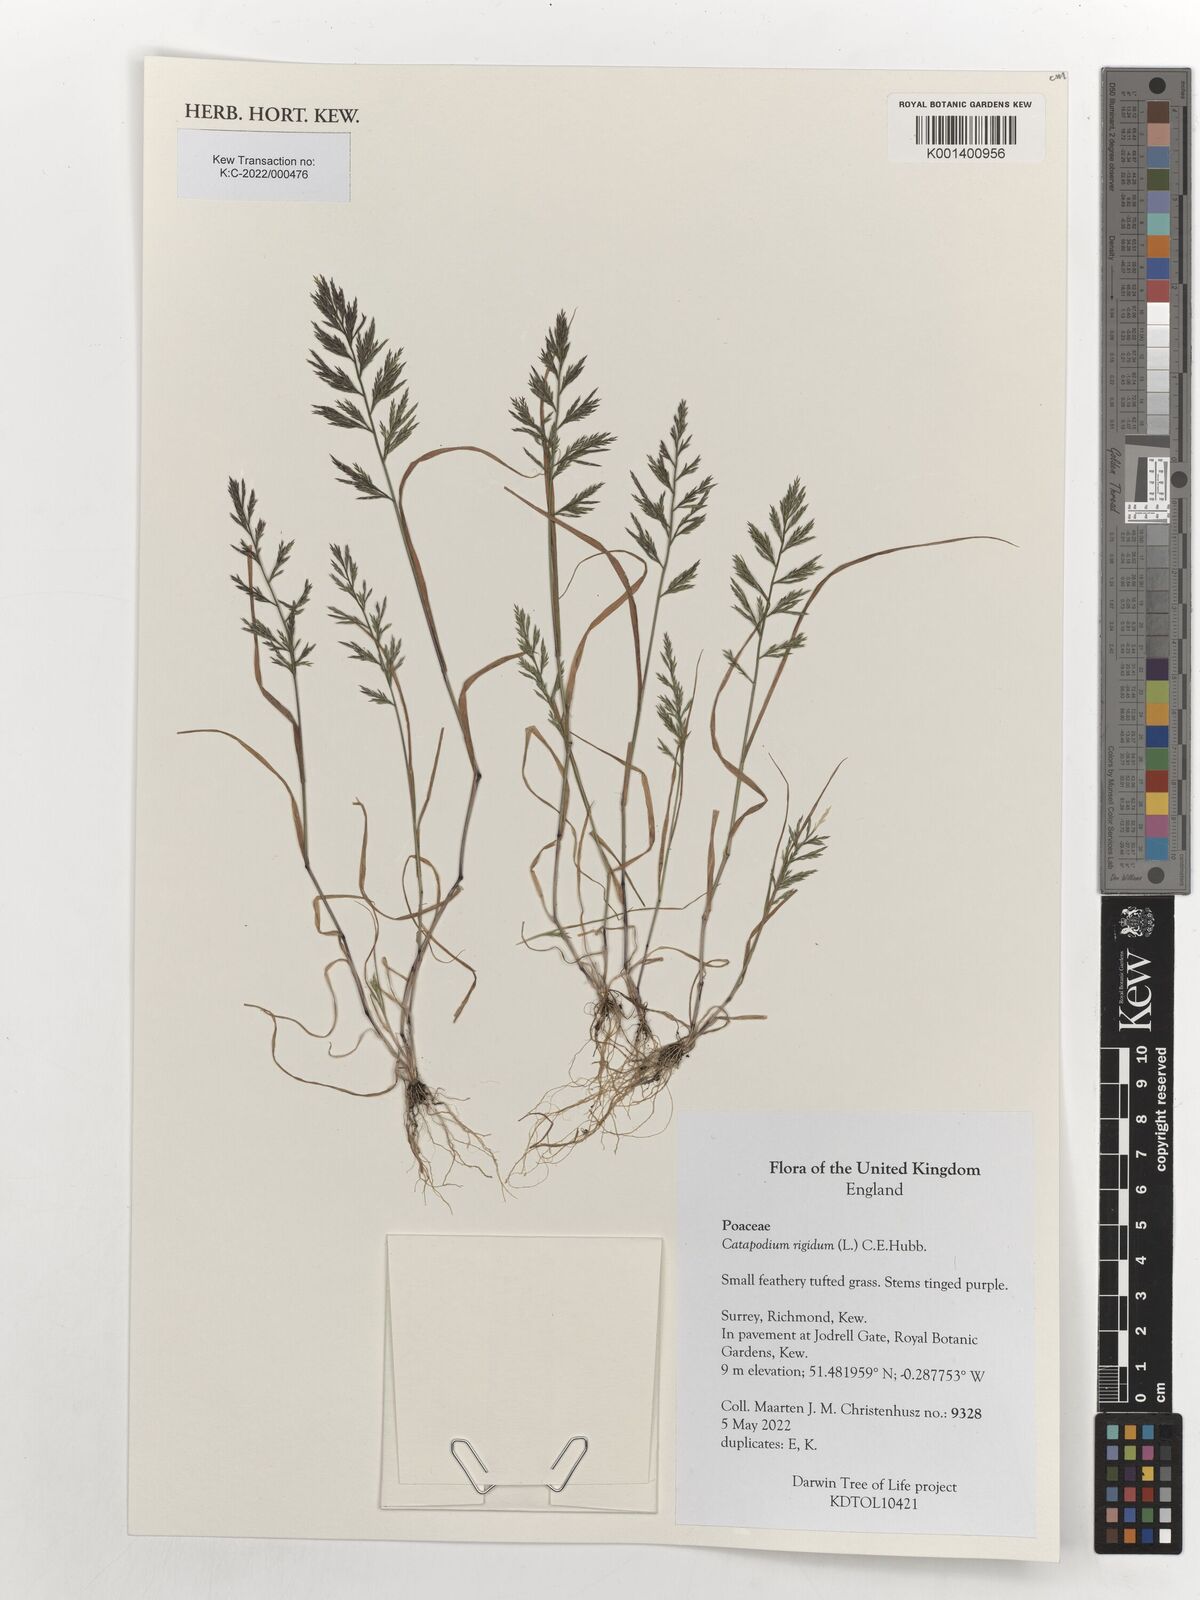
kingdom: Plantae
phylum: Tracheophyta
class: Liliopsida
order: Poales
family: Poaceae
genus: Catapodium
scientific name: Catapodium rigidum
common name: Fern-grass
